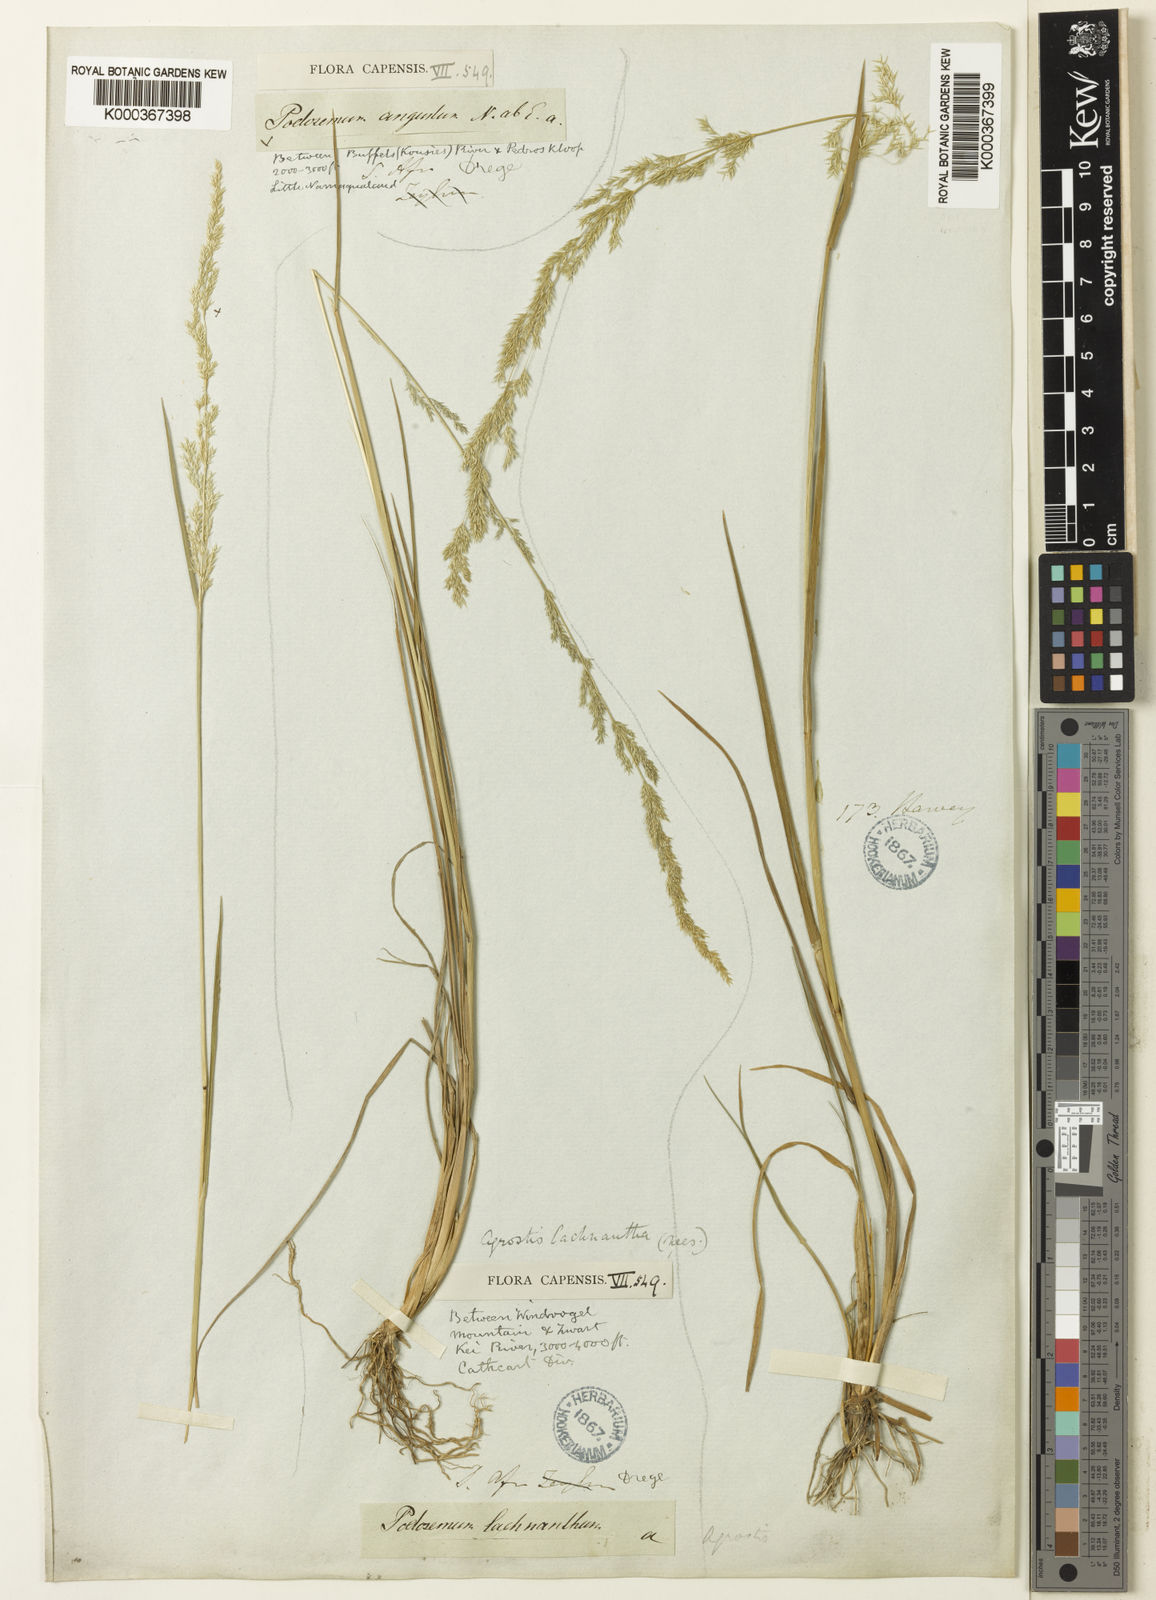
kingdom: Plantae
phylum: Tracheophyta
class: Liliopsida
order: Poales
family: Poaceae
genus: Lachnagrostis
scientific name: Lachnagrostis lachnantha
